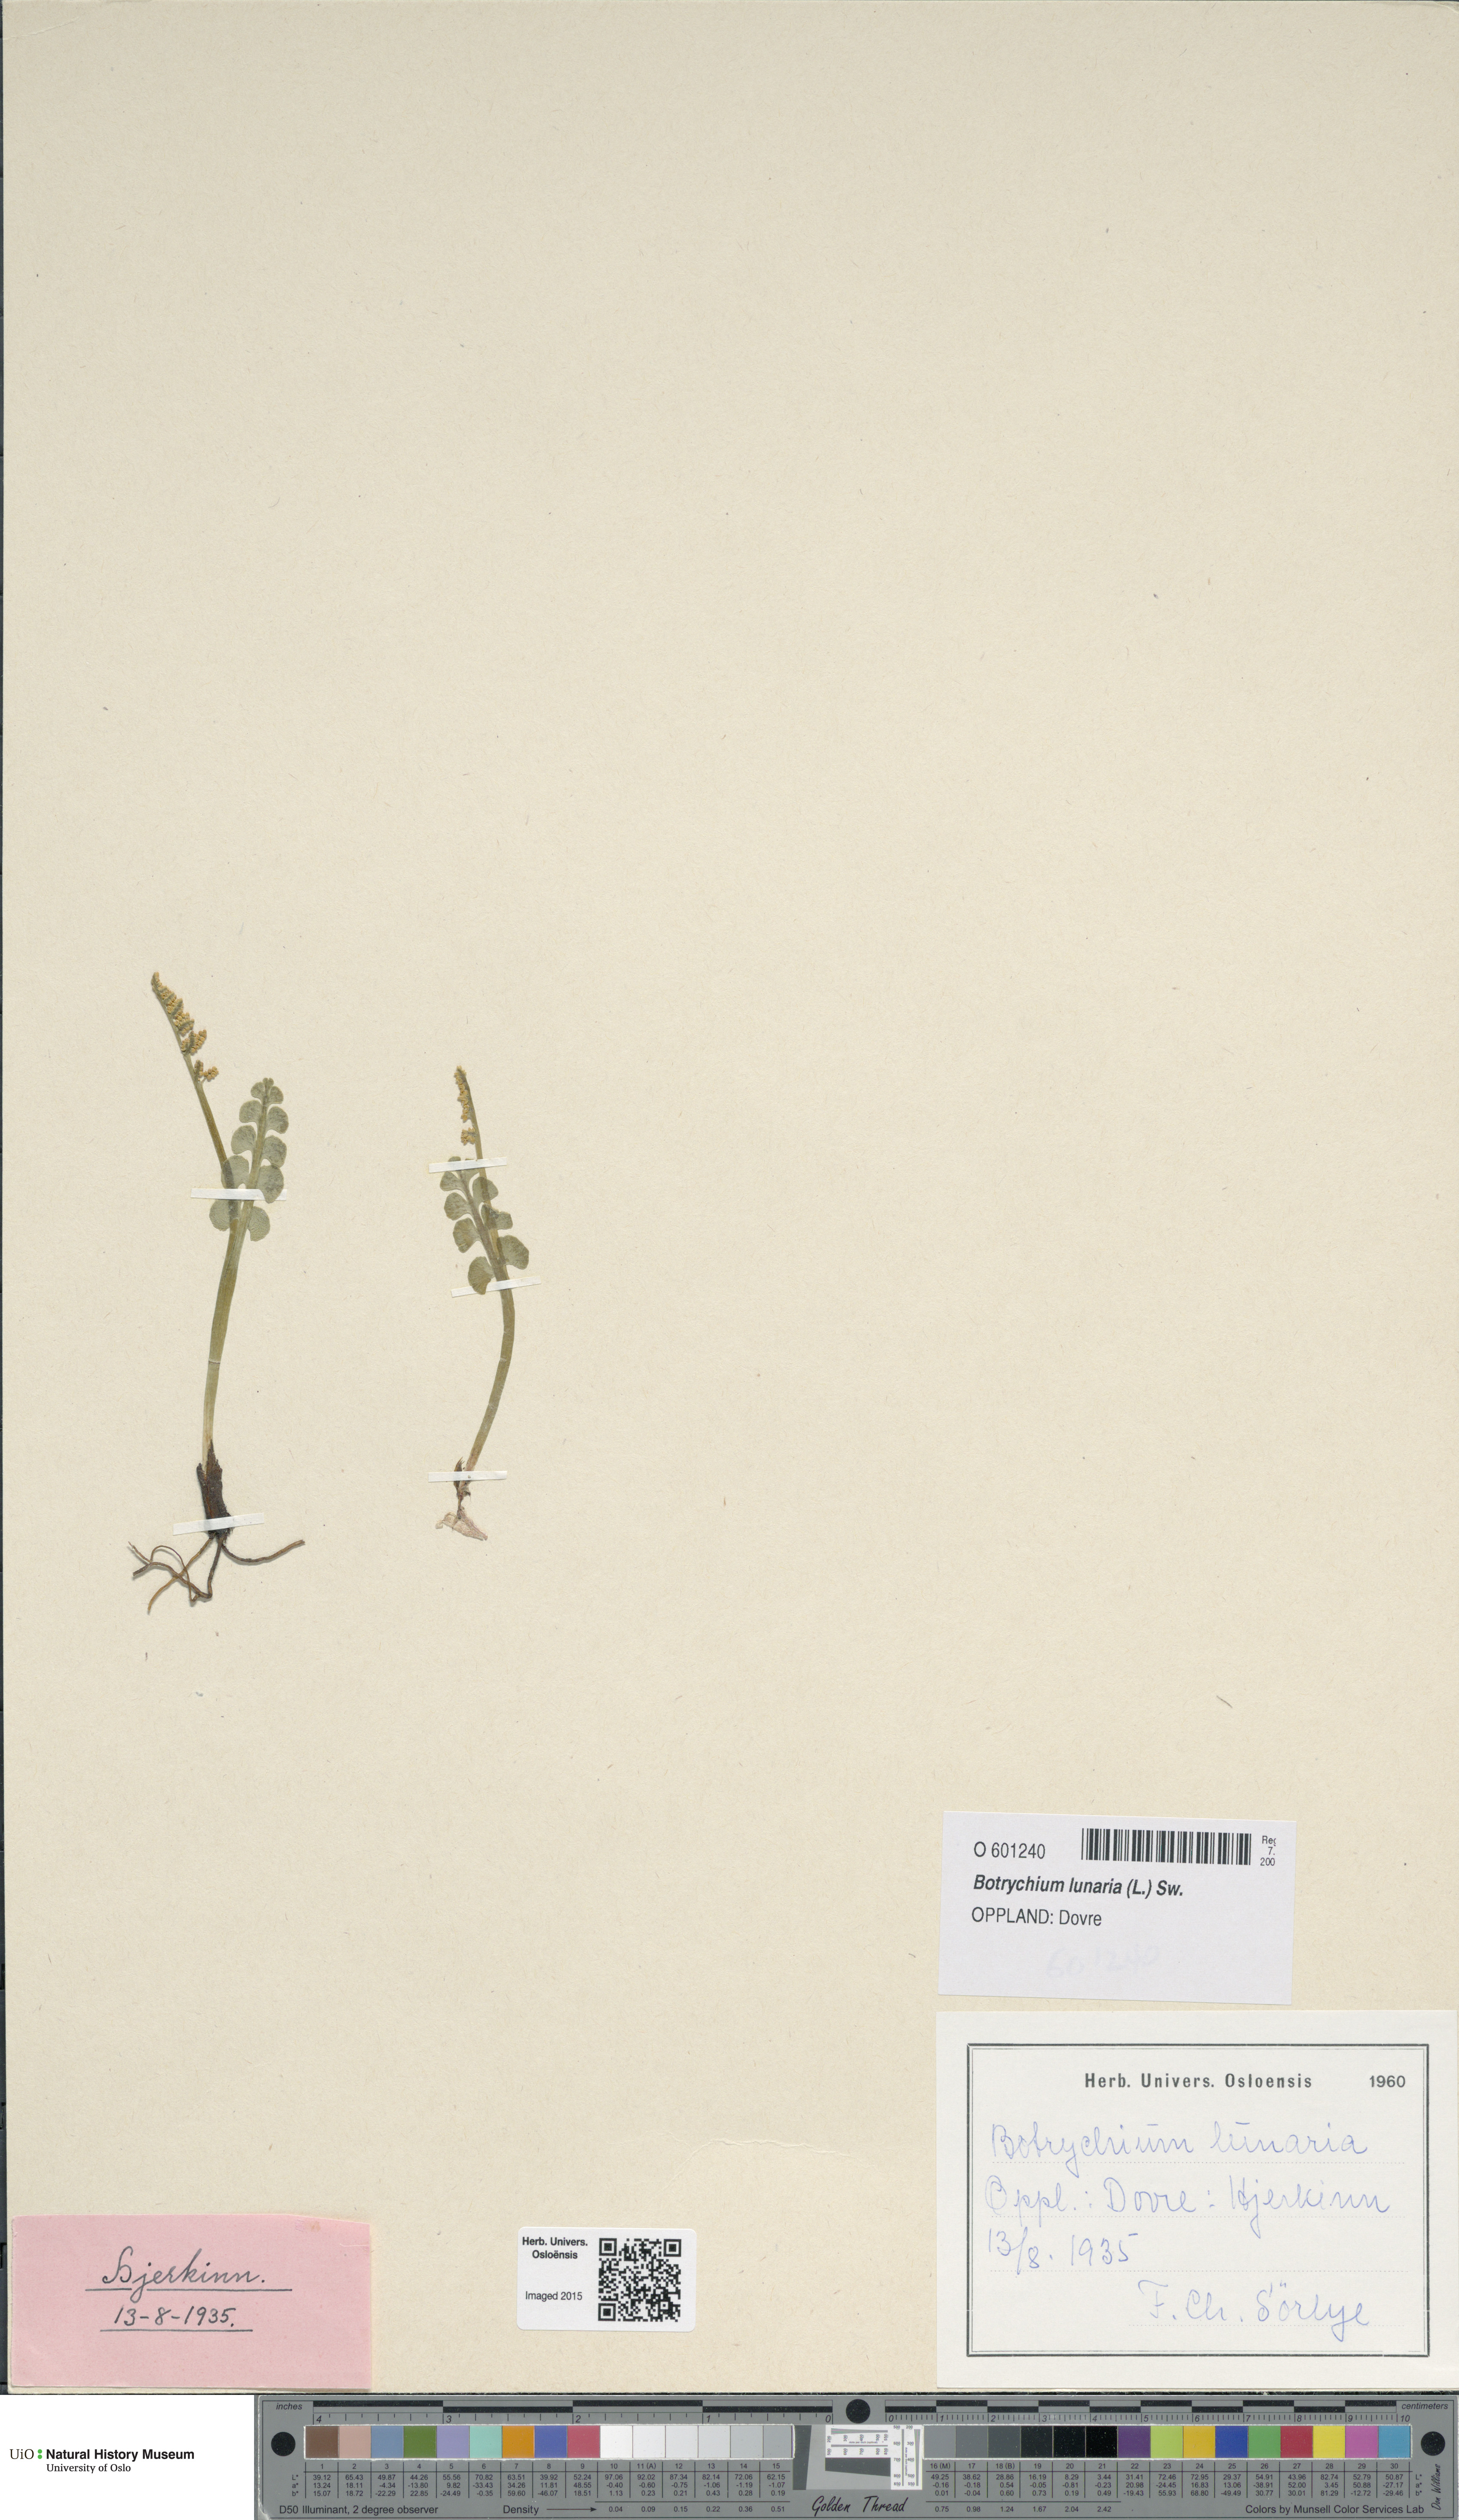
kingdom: Plantae
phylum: Tracheophyta
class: Polypodiopsida
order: Ophioglossales
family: Ophioglossaceae
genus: Botrychium
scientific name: Botrychium lunaria
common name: Moonwort
